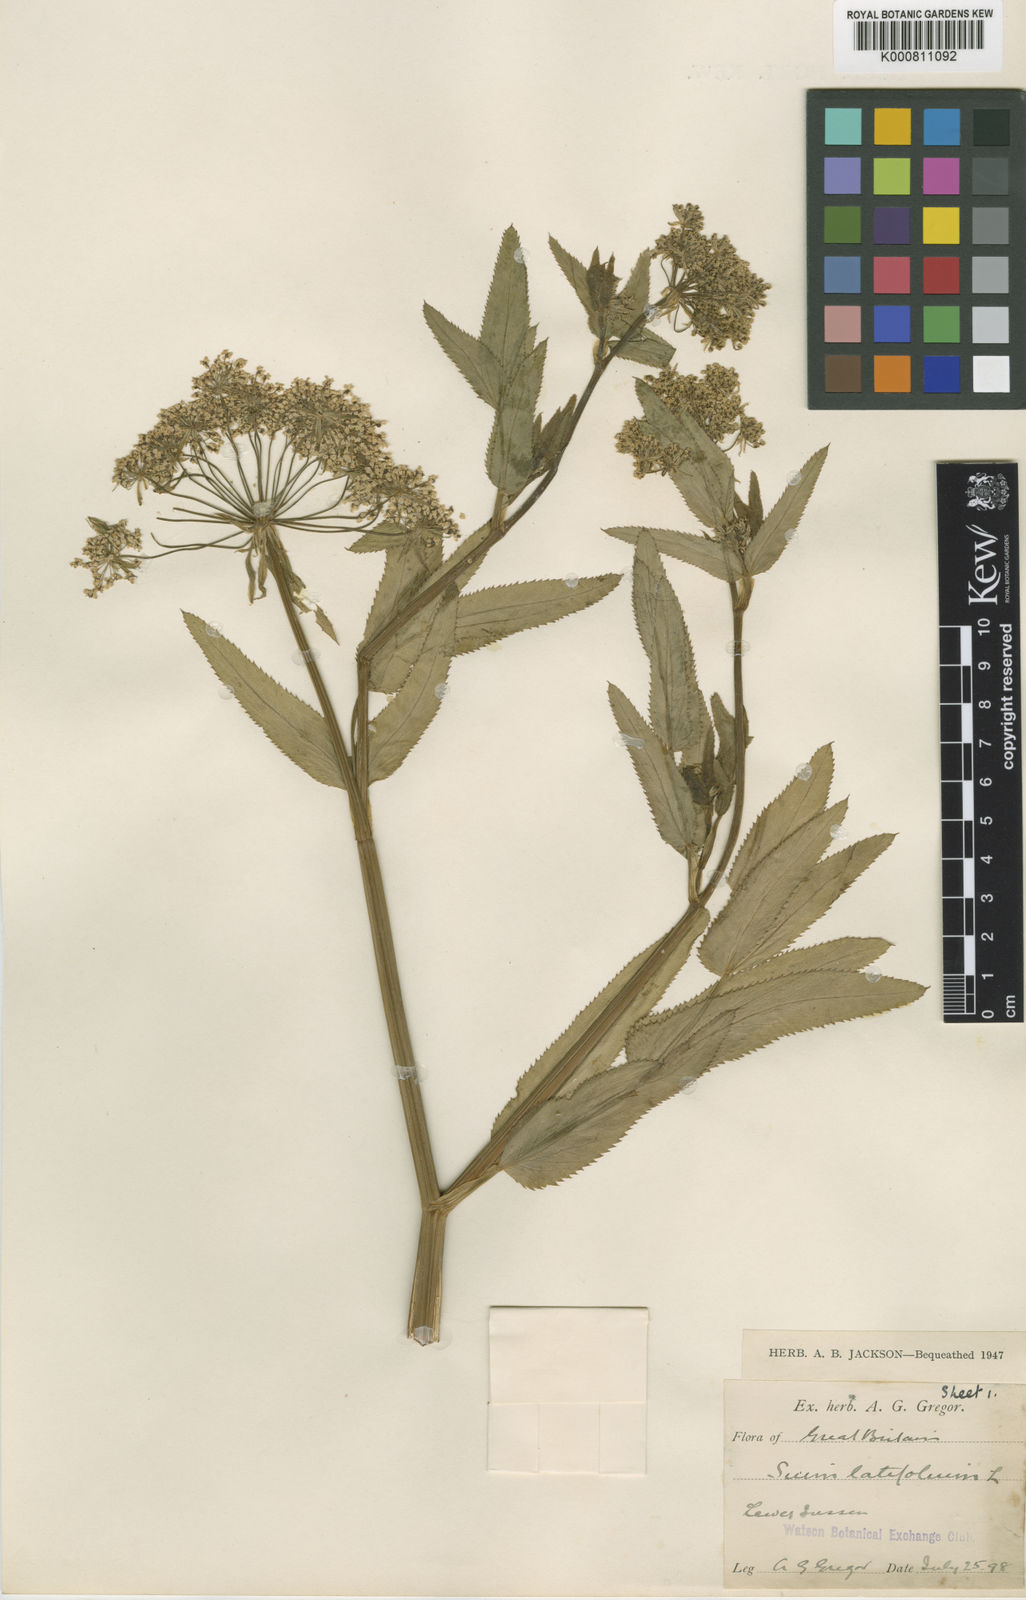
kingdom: Plantae
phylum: Tracheophyta
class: Magnoliopsida
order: Apiales
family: Apiaceae
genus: Sium
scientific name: Sium latifolium
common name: Greater water-parsnip
